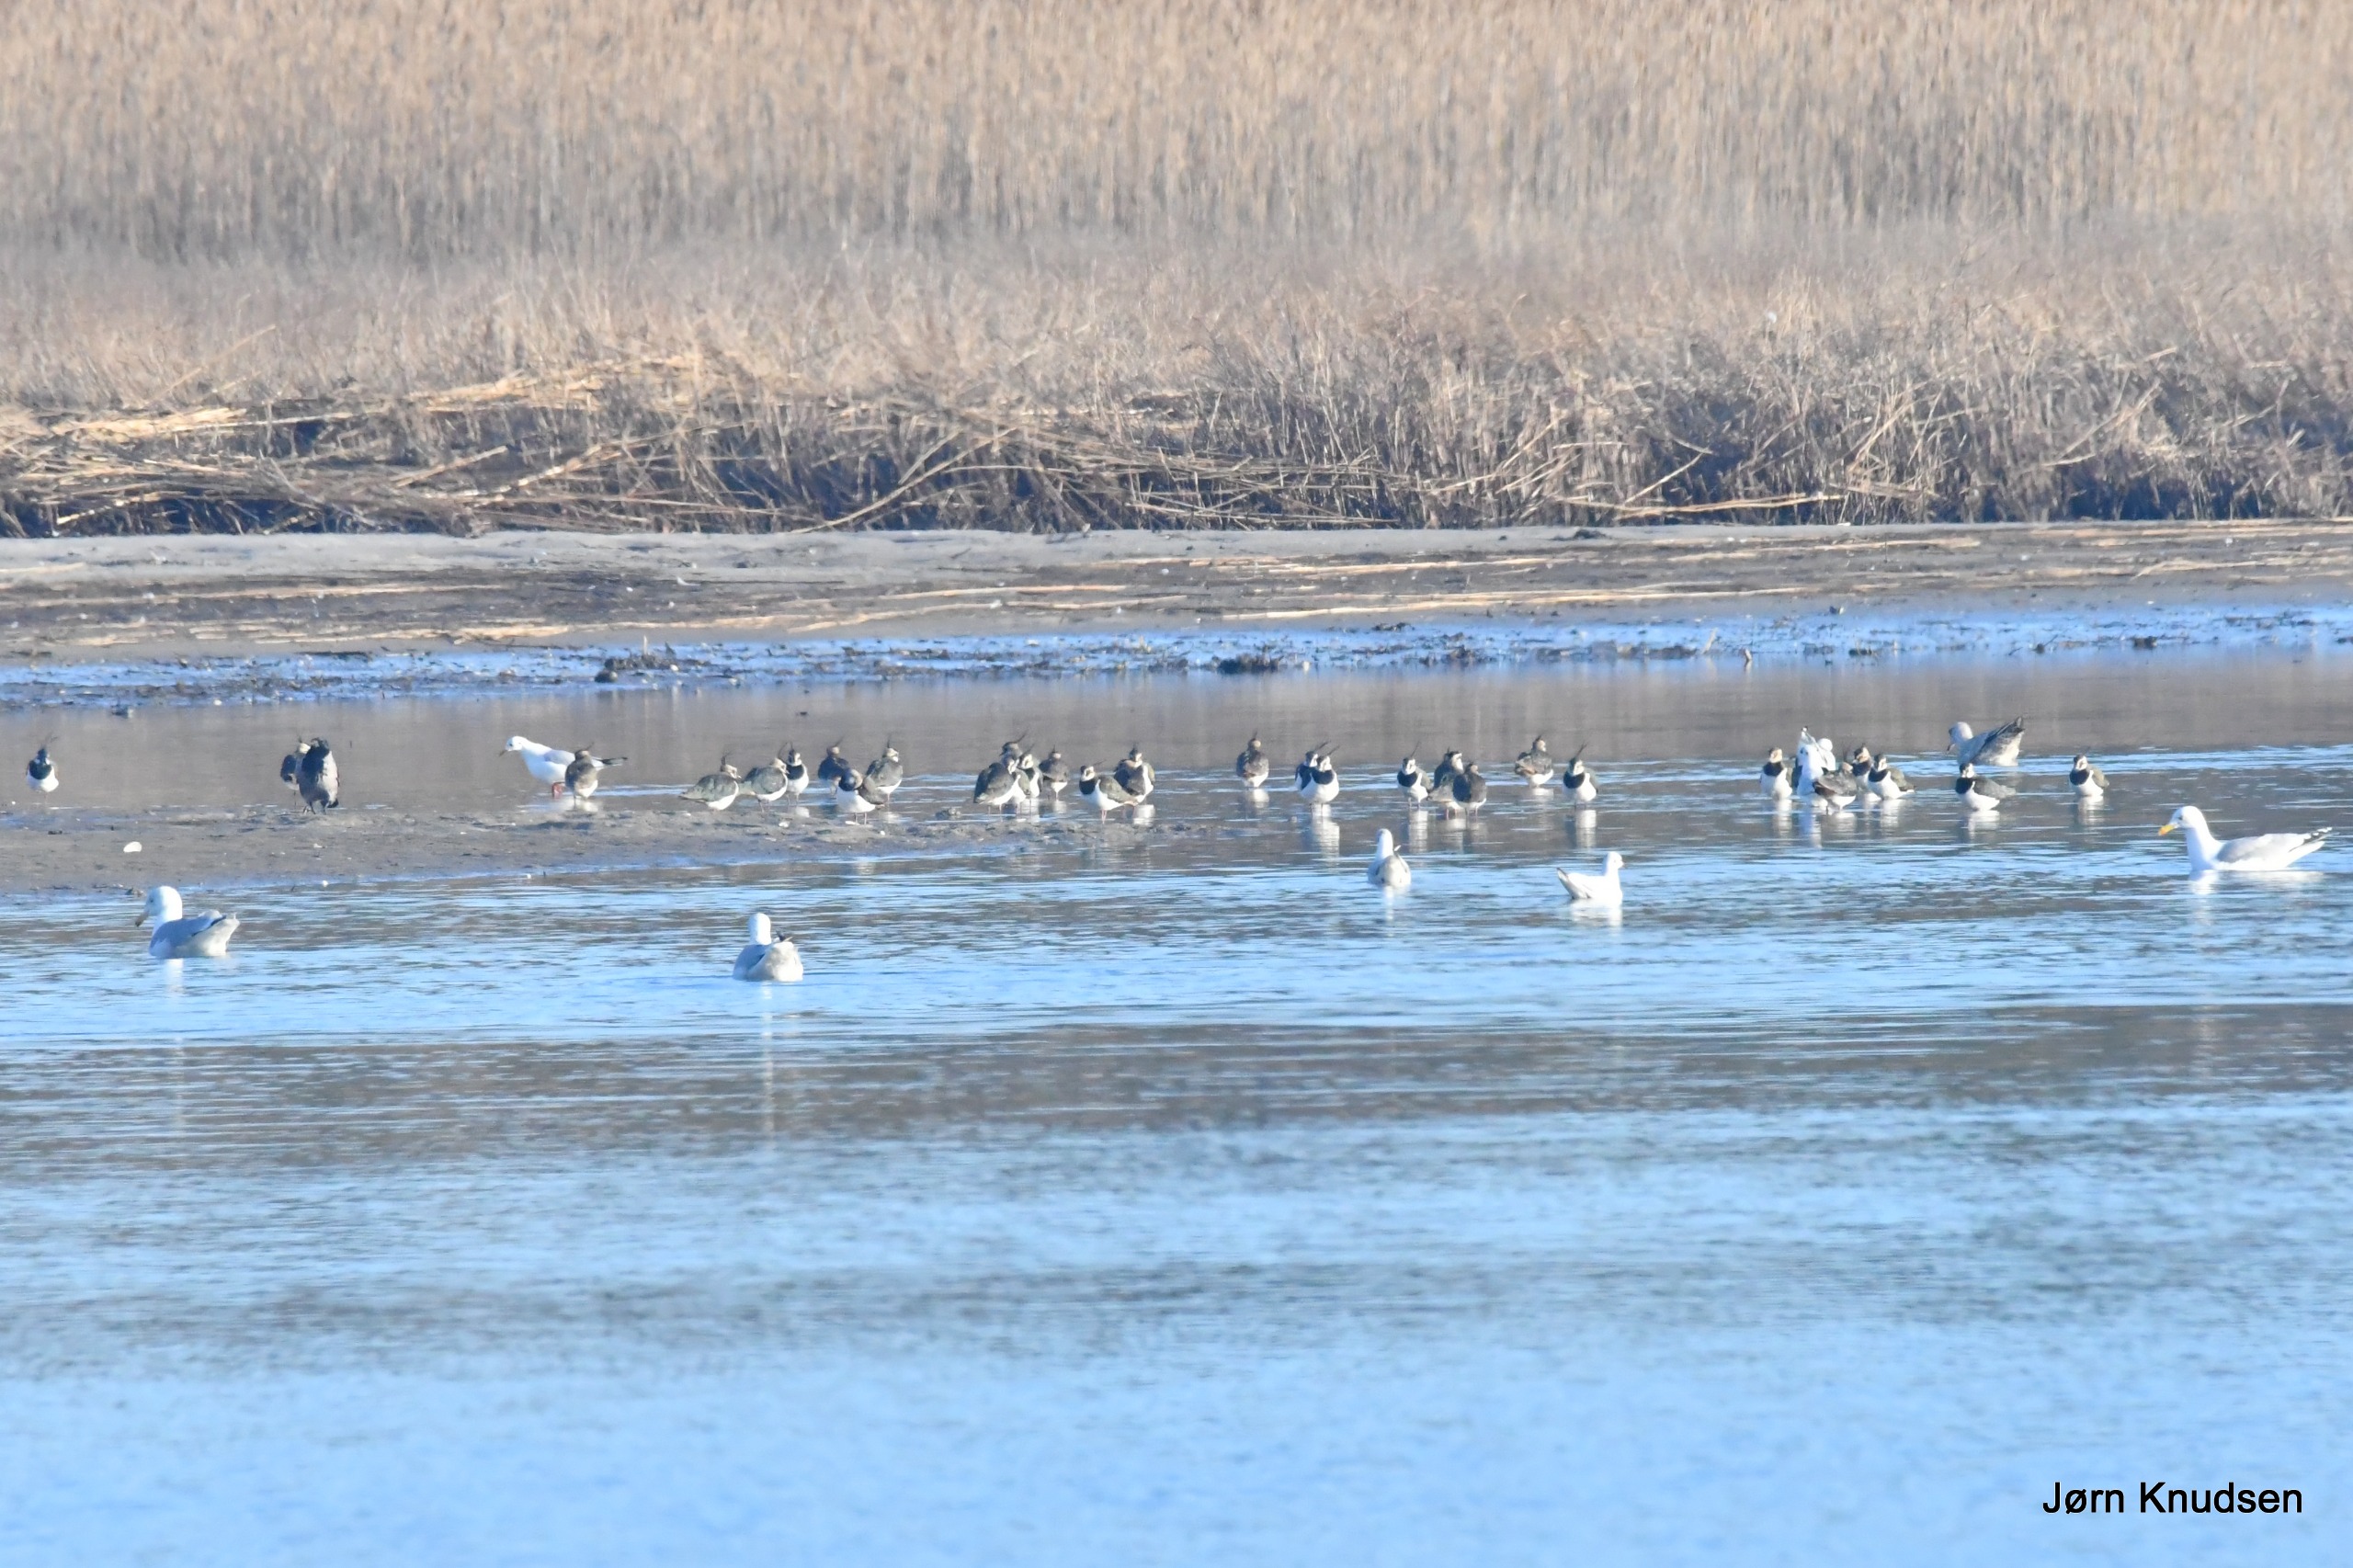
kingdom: Animalia
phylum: Chordata
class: Aves
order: Charadriiformes
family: Charadriidae
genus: Vanellus
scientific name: Vanellus vanellus
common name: Vibe
